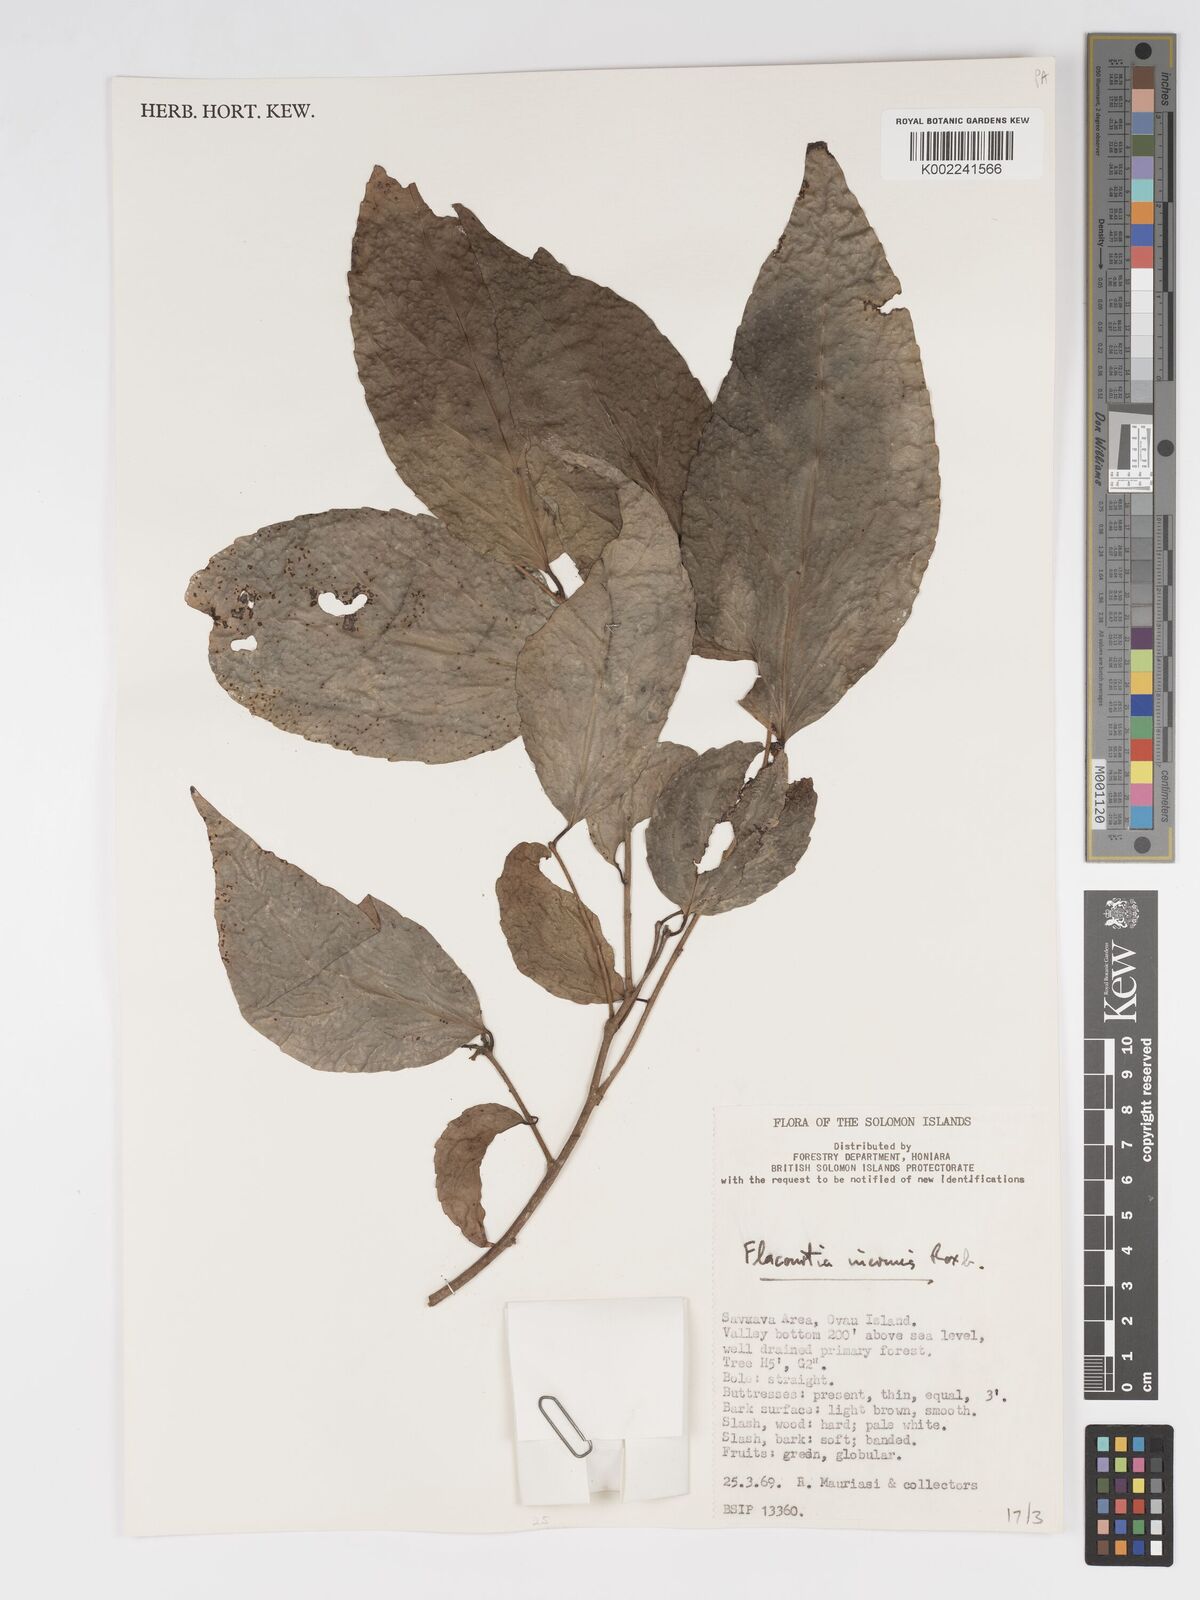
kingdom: Plantae
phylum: Tracheophyta
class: Magnoliopsida
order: Malpighiales
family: Salicaceae
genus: Flacourtia
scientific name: Flacourtia inermis
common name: Plum-of-martinique
